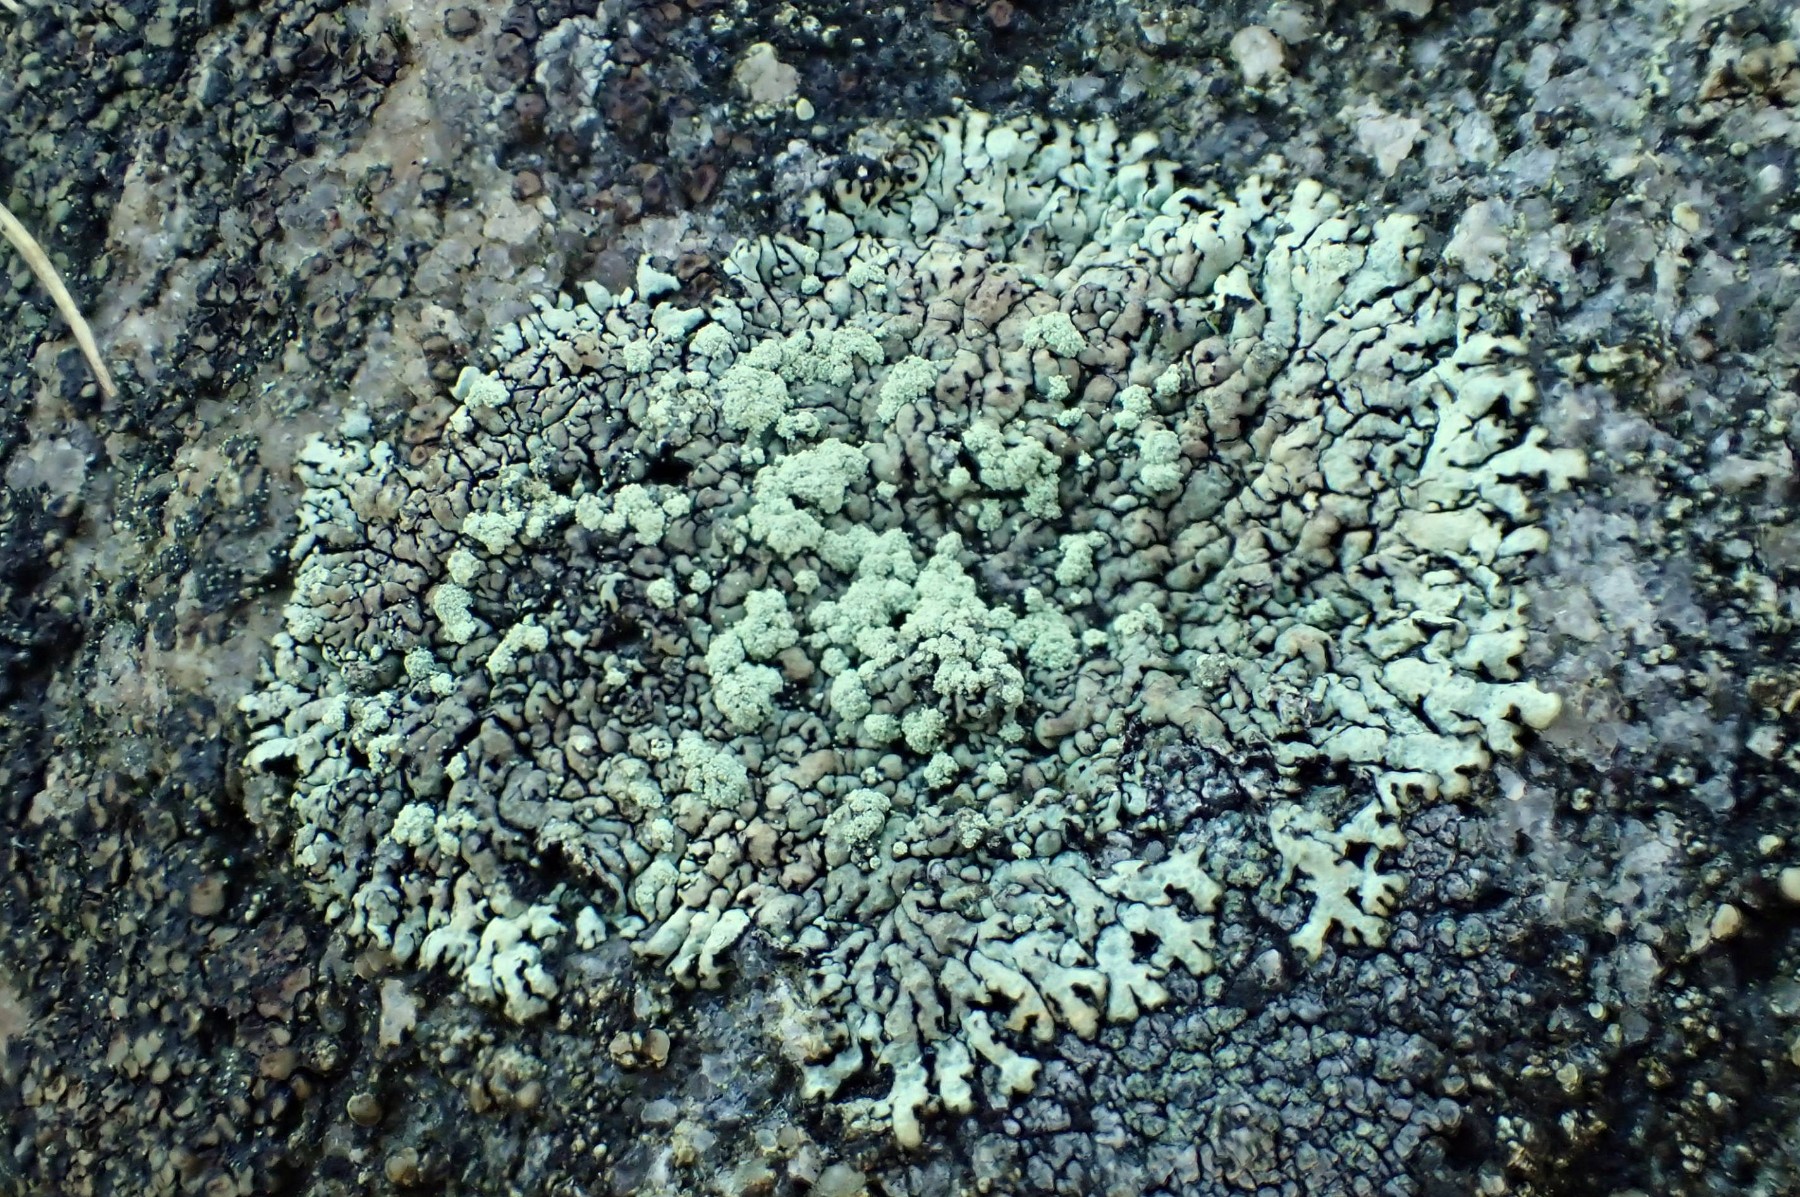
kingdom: Fungi
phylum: Ascomycota
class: Lecanoromycetes
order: Lecanorales
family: Parmeliaceae
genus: Xanthoparmelia
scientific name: Xanthoparmelia mougeotii
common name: liden skållav
